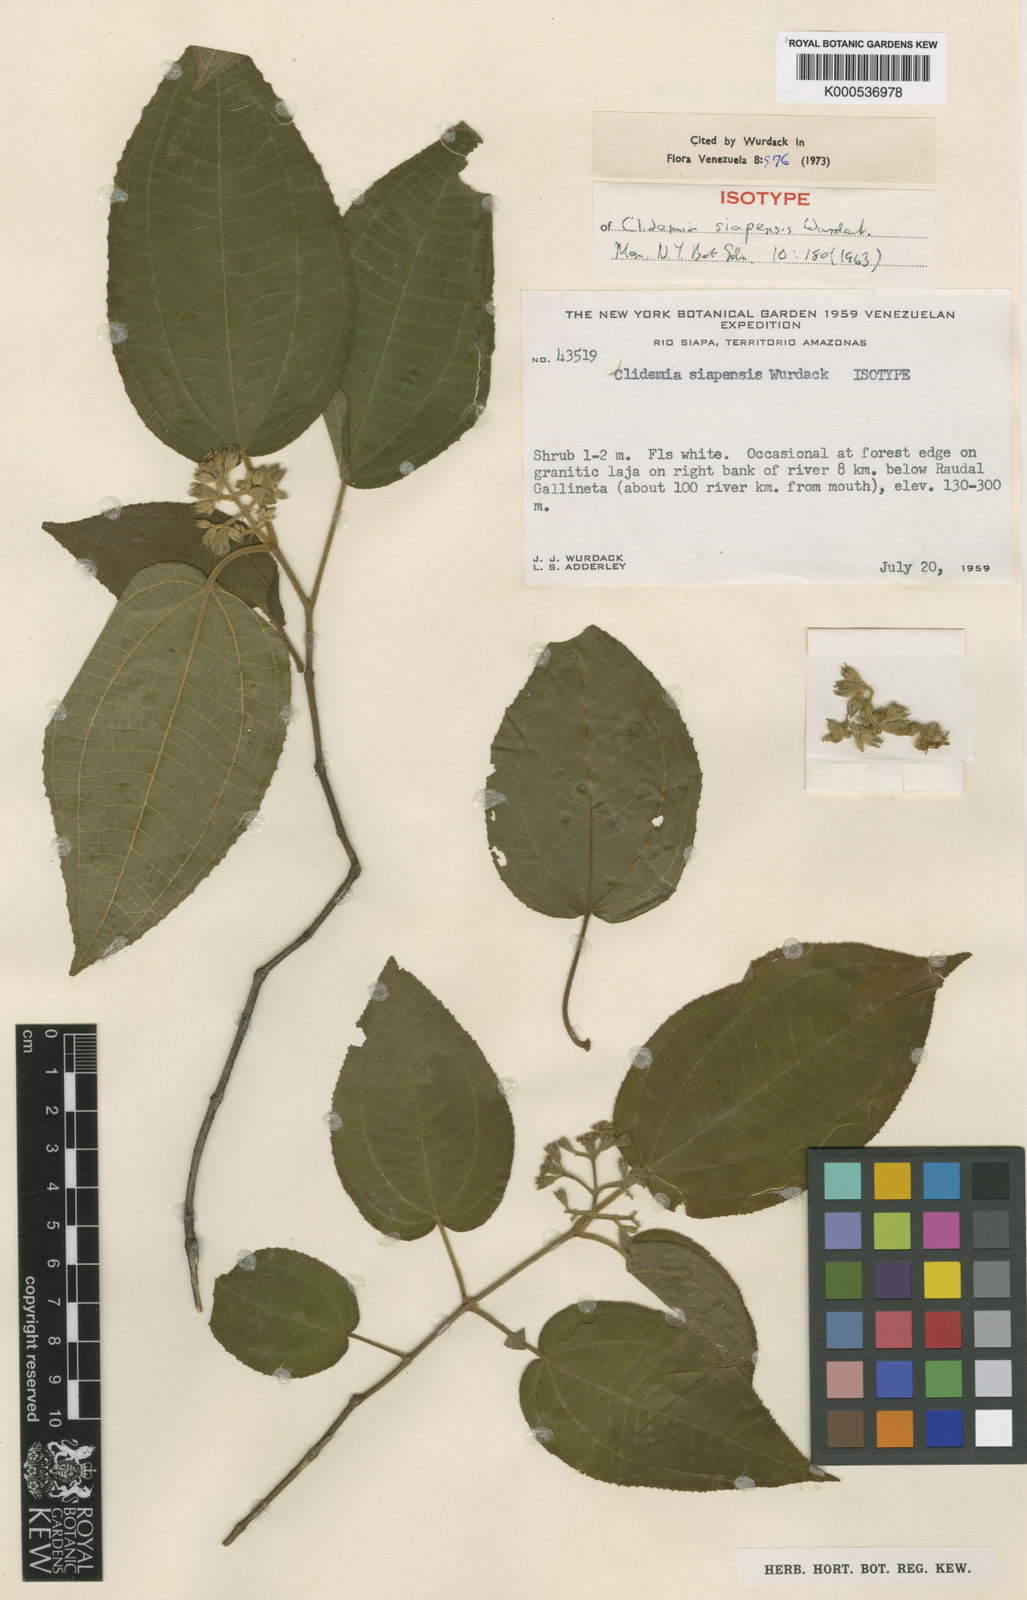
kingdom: Plantae
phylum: Tracheophyta
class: Magnoliopsida
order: Myrtales
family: Melastomataceae
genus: Miconia
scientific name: Miconia siapensis
